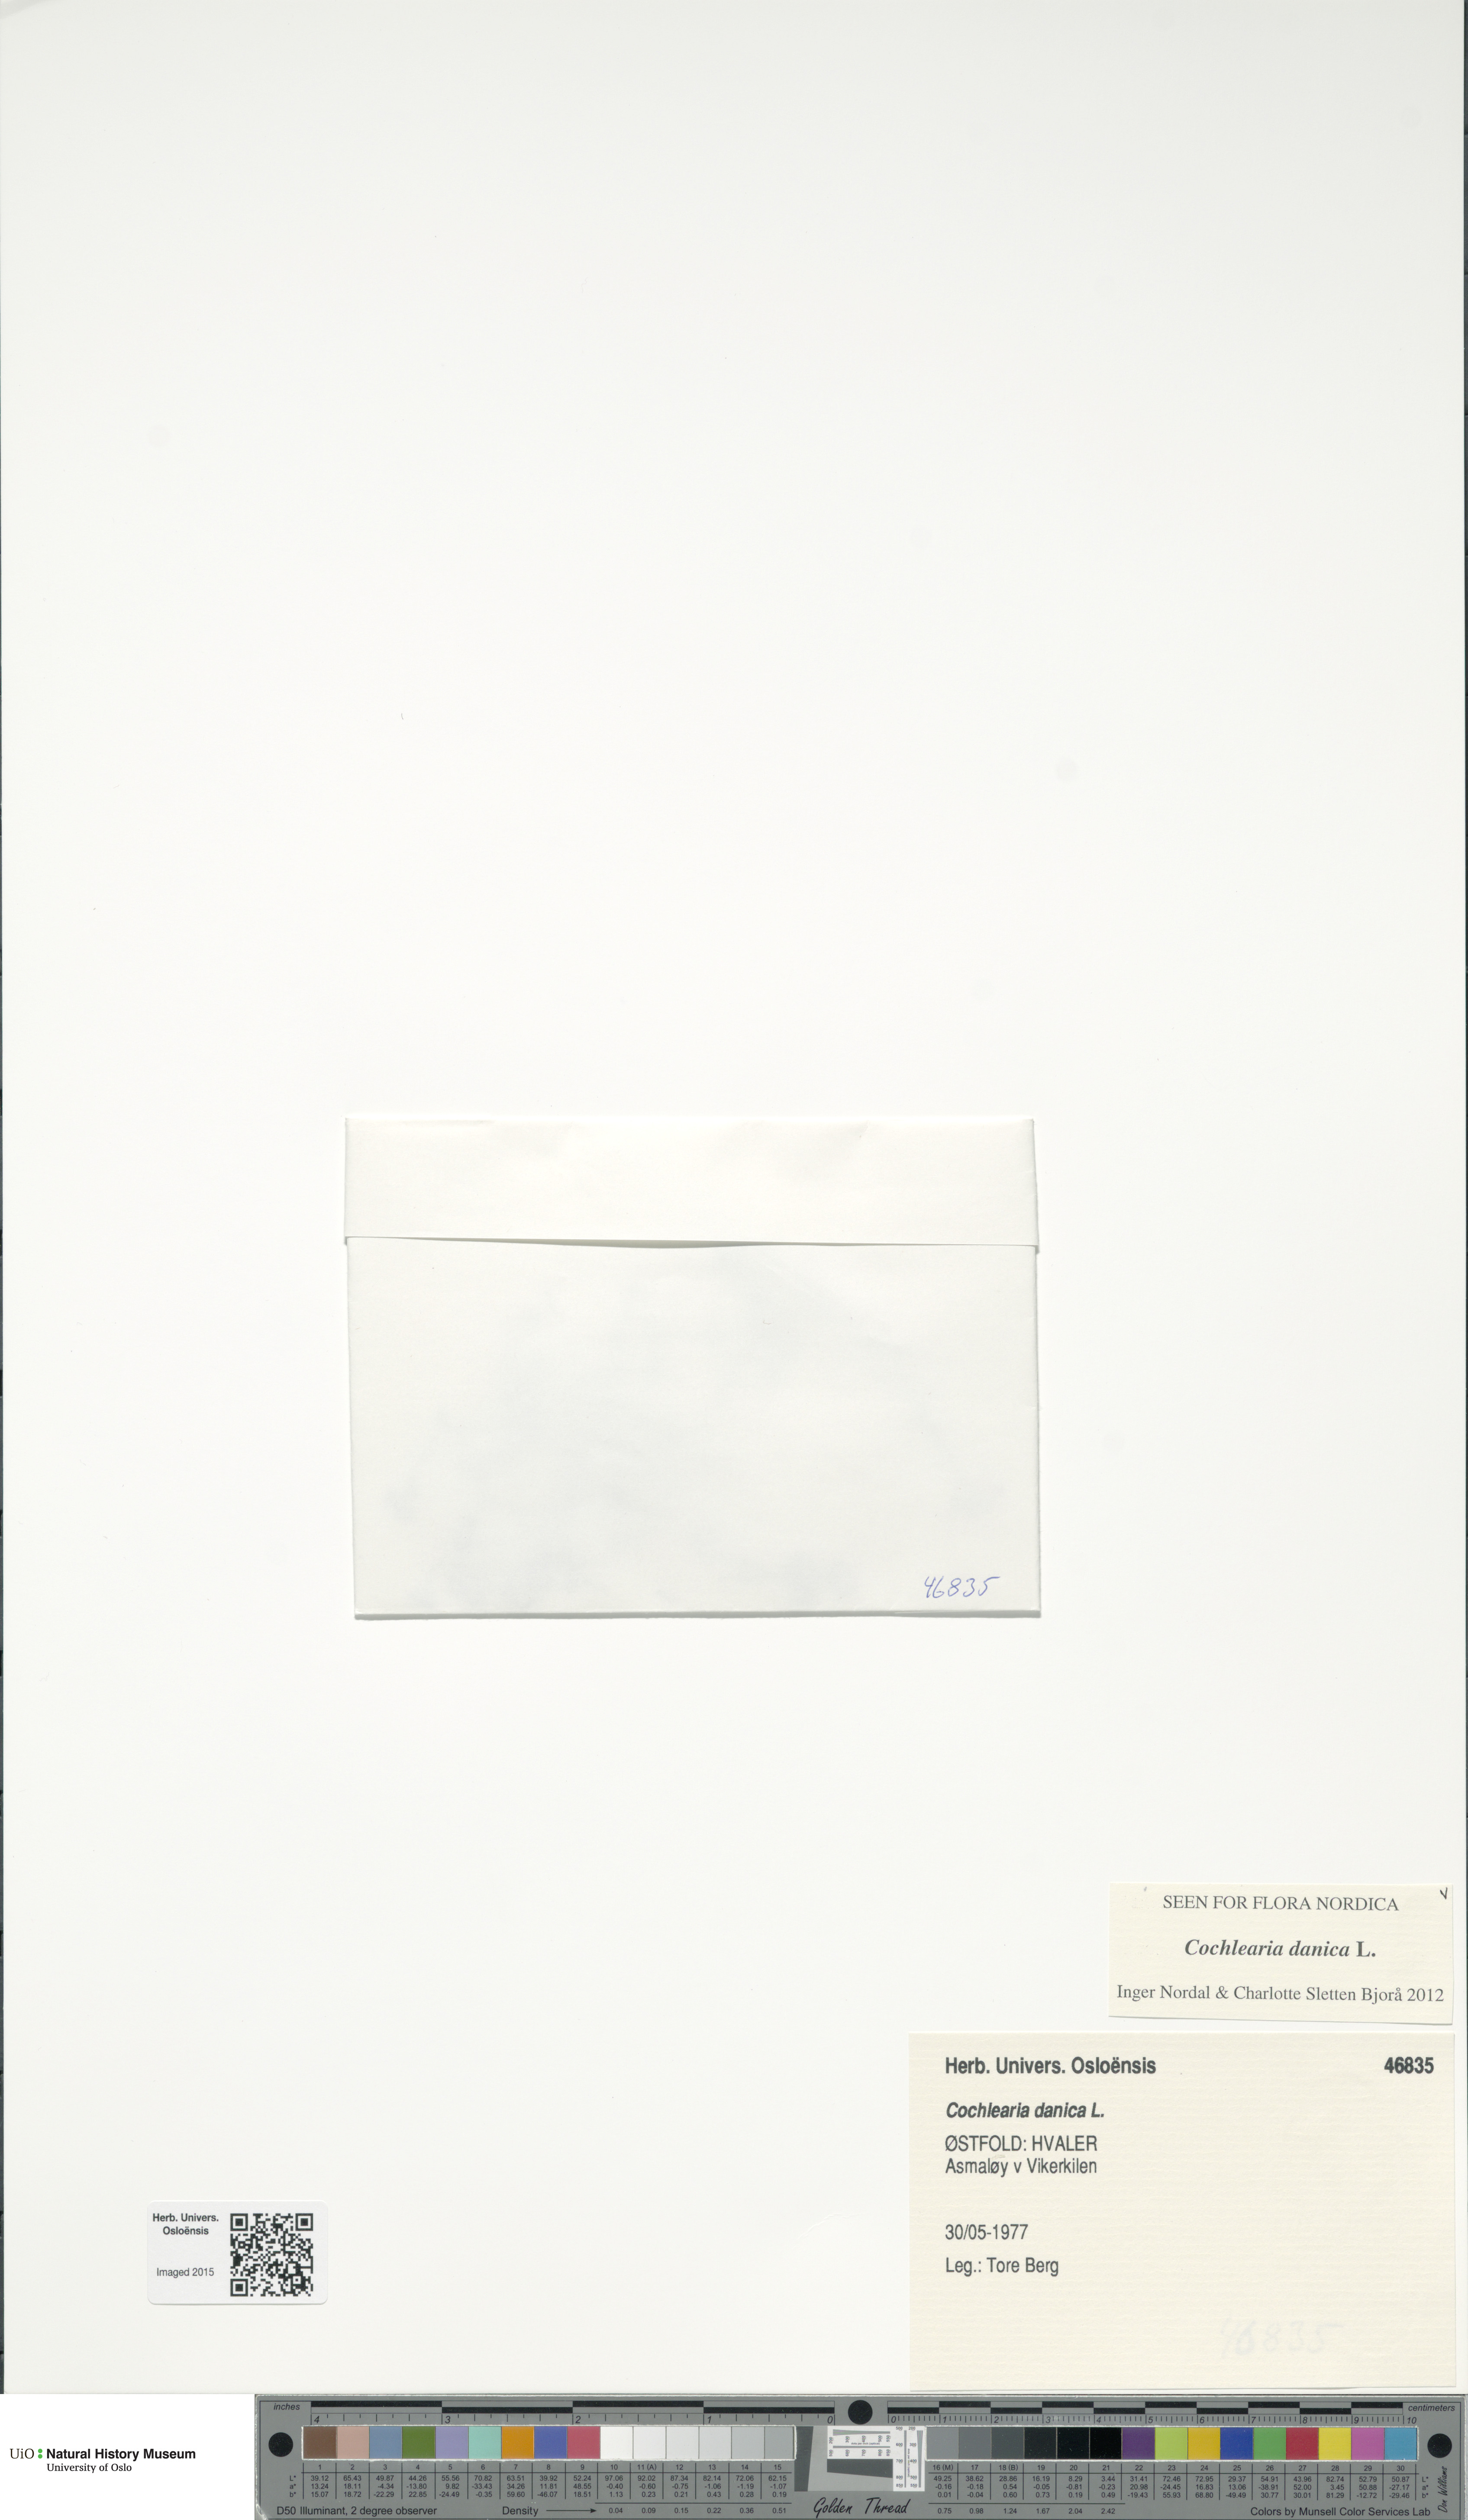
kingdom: Plantae
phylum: Tracheophyta
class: Magnoliopsida
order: Brassicales
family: Brassicaceae
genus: Cochlearia
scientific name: Cochlearia danica
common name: Early scurvygrass
